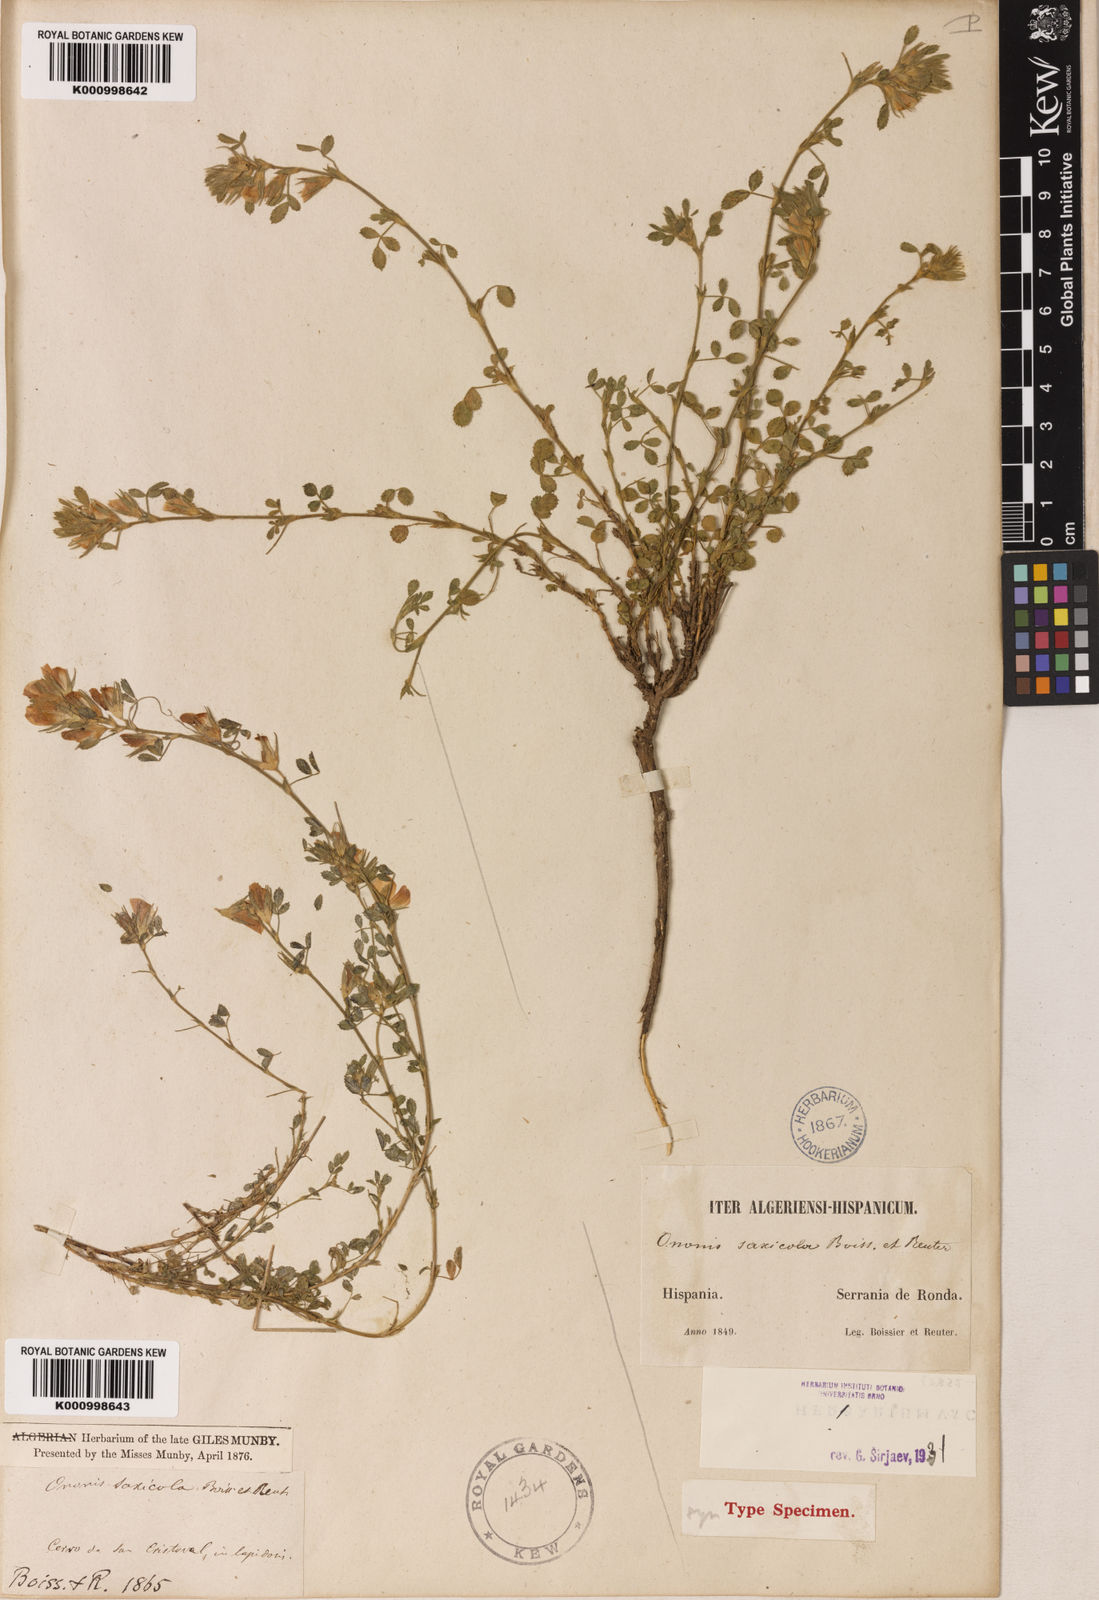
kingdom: Plantae
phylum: Tracheophyta
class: Magnoliopsida
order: Fabales
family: Fabaceae
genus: Ononis
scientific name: Ononis pusilla
